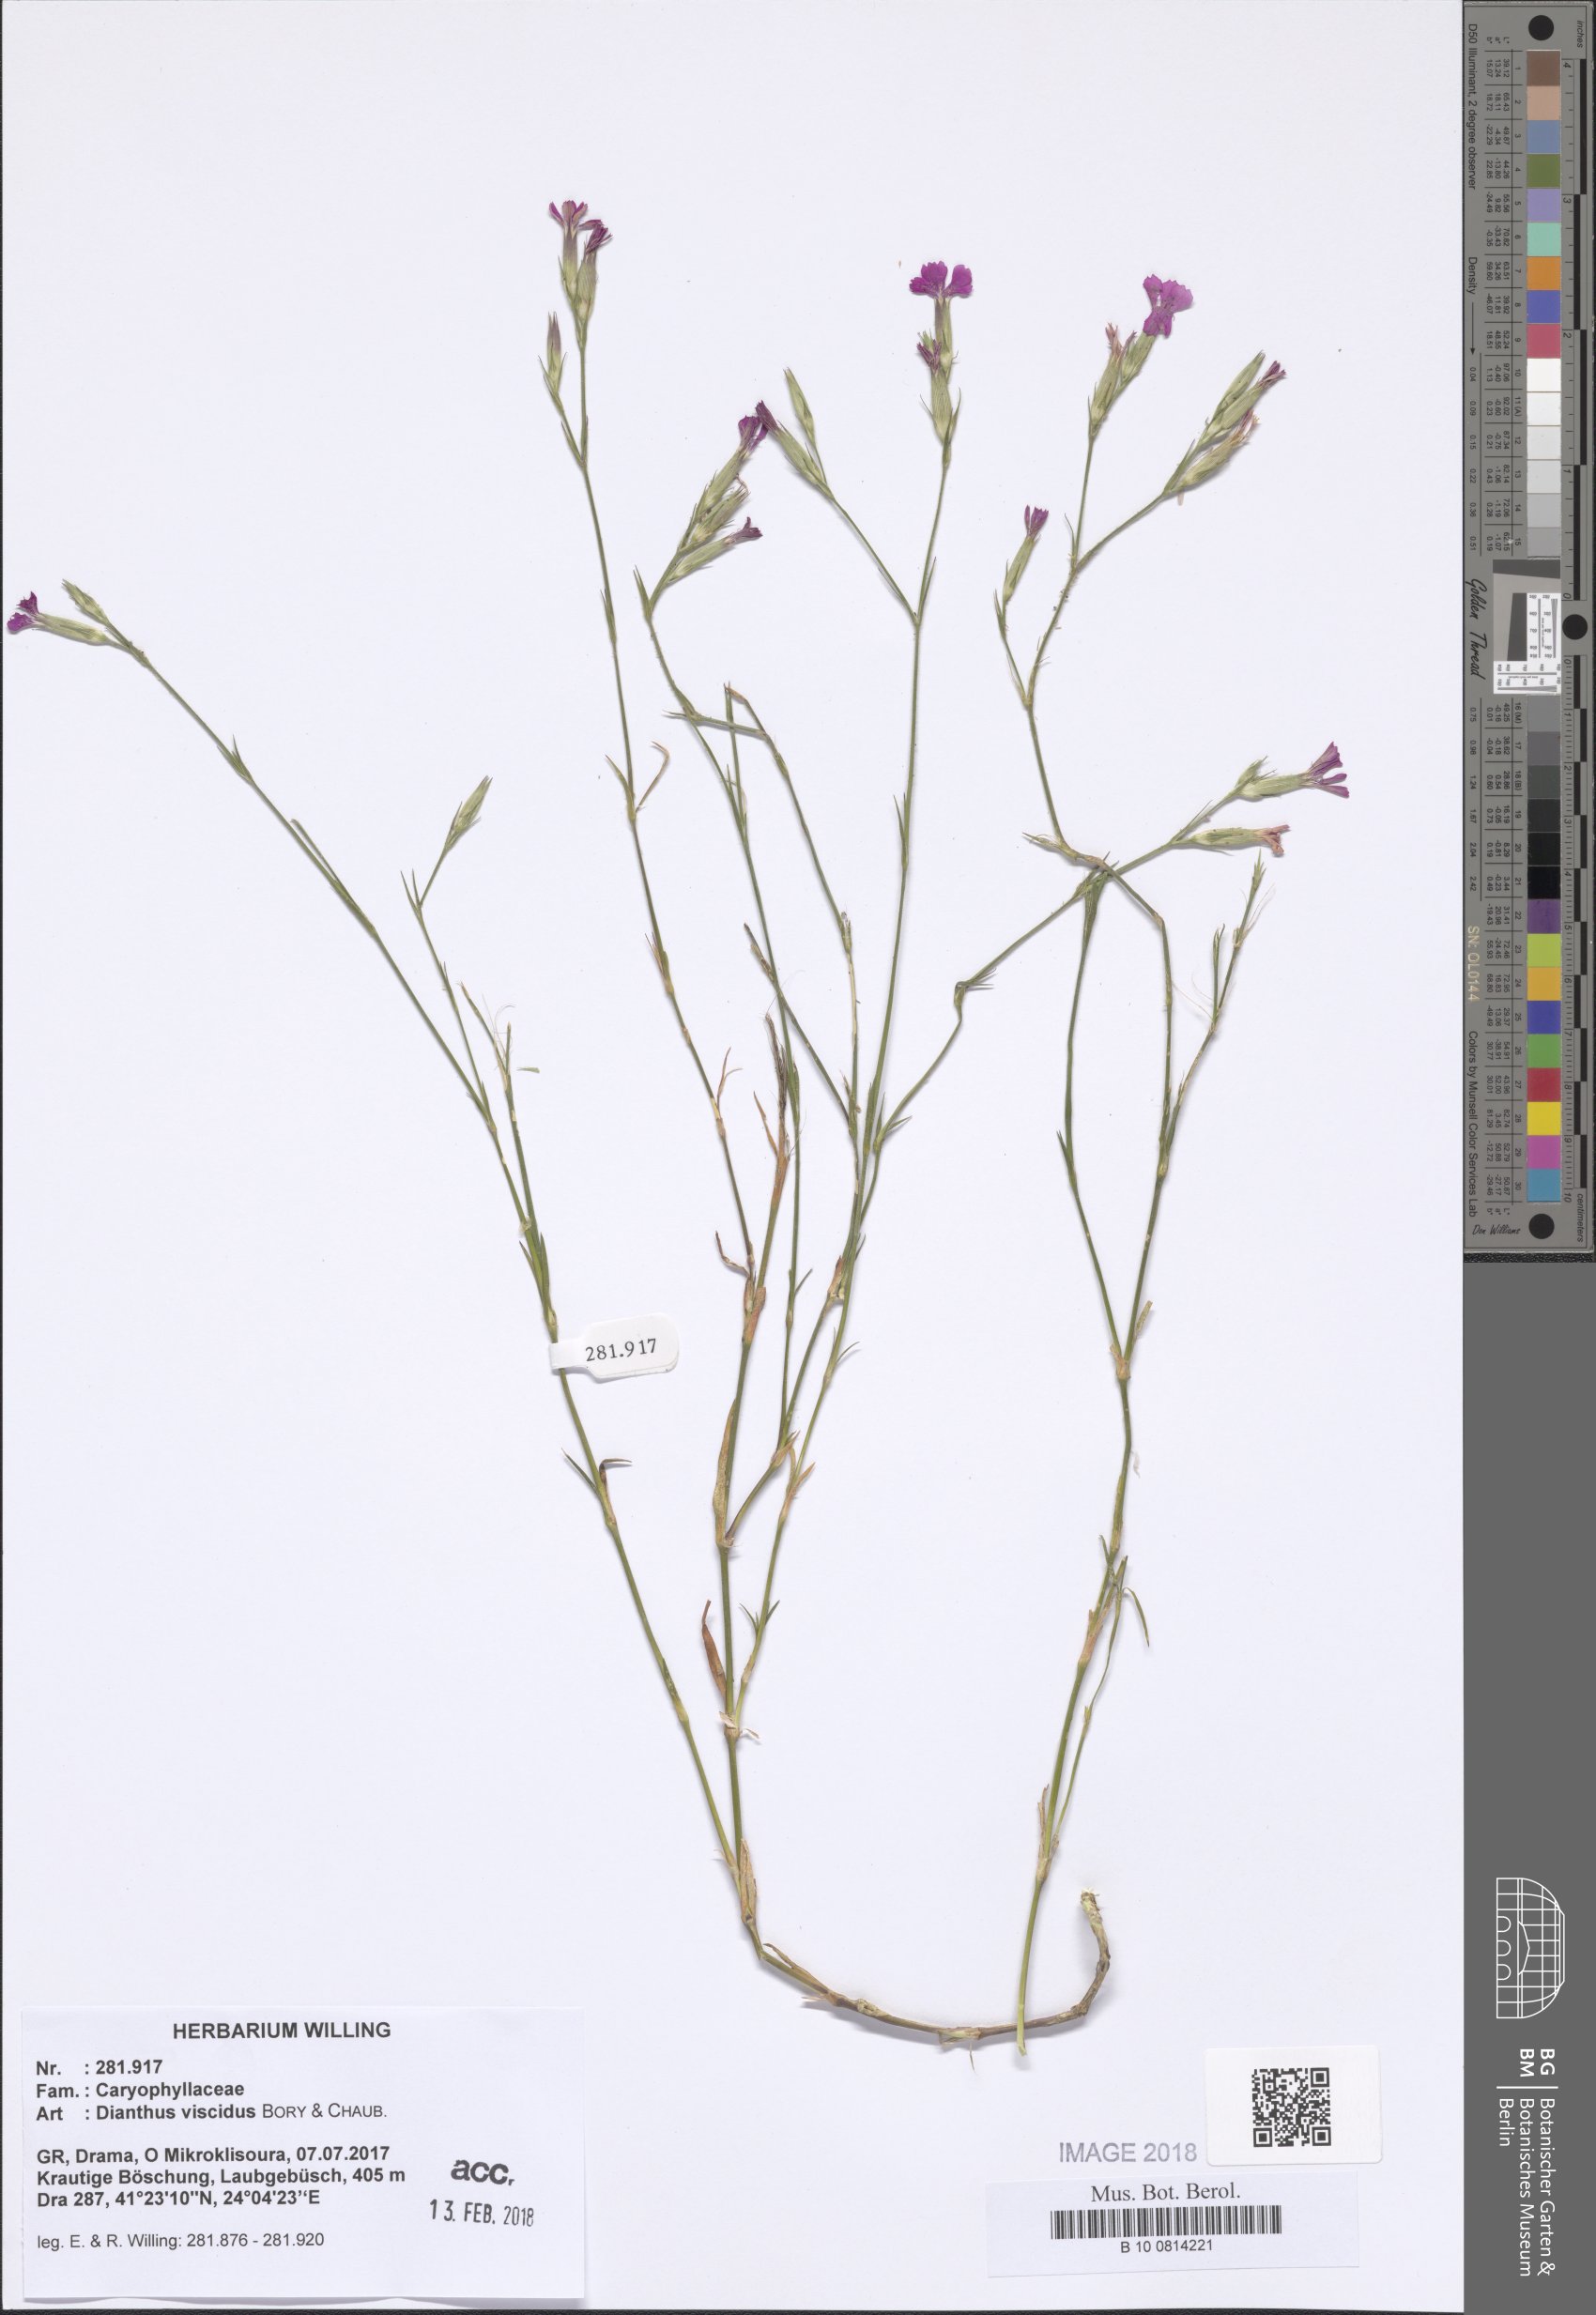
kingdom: Plantae
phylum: Tracheophyta
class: Magnoliopsida
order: Caryophyllales
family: Caryophyllaceae
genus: Dianthus
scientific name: Dianthus viscidus
